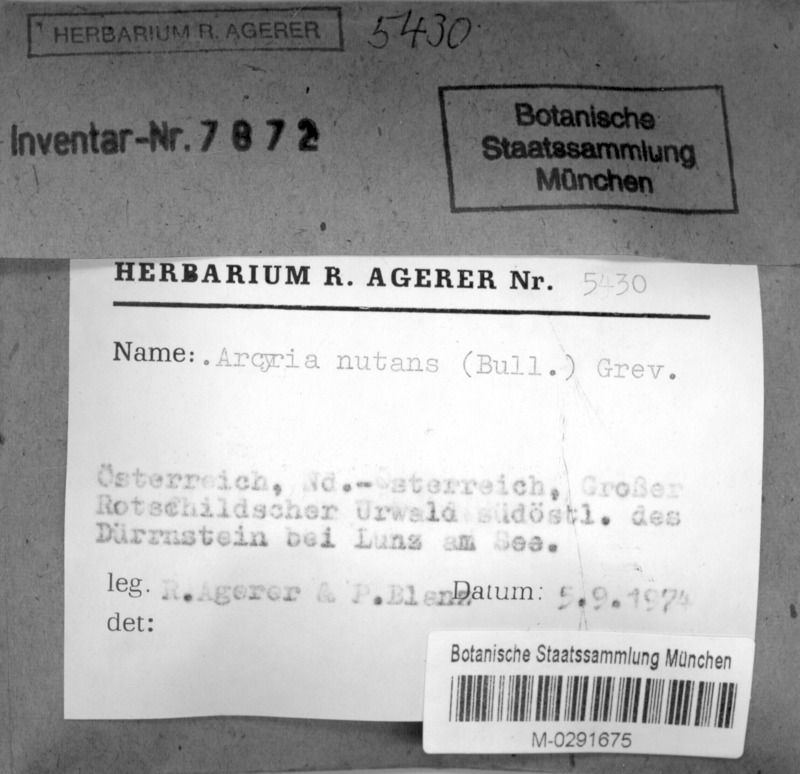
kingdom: Protozoa
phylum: Mycetozoa
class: Myxomycetes
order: Trichiales
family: Arcyriaceae
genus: Arcyria
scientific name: Arcyria obvelata
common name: Yellow carnival candy slime
